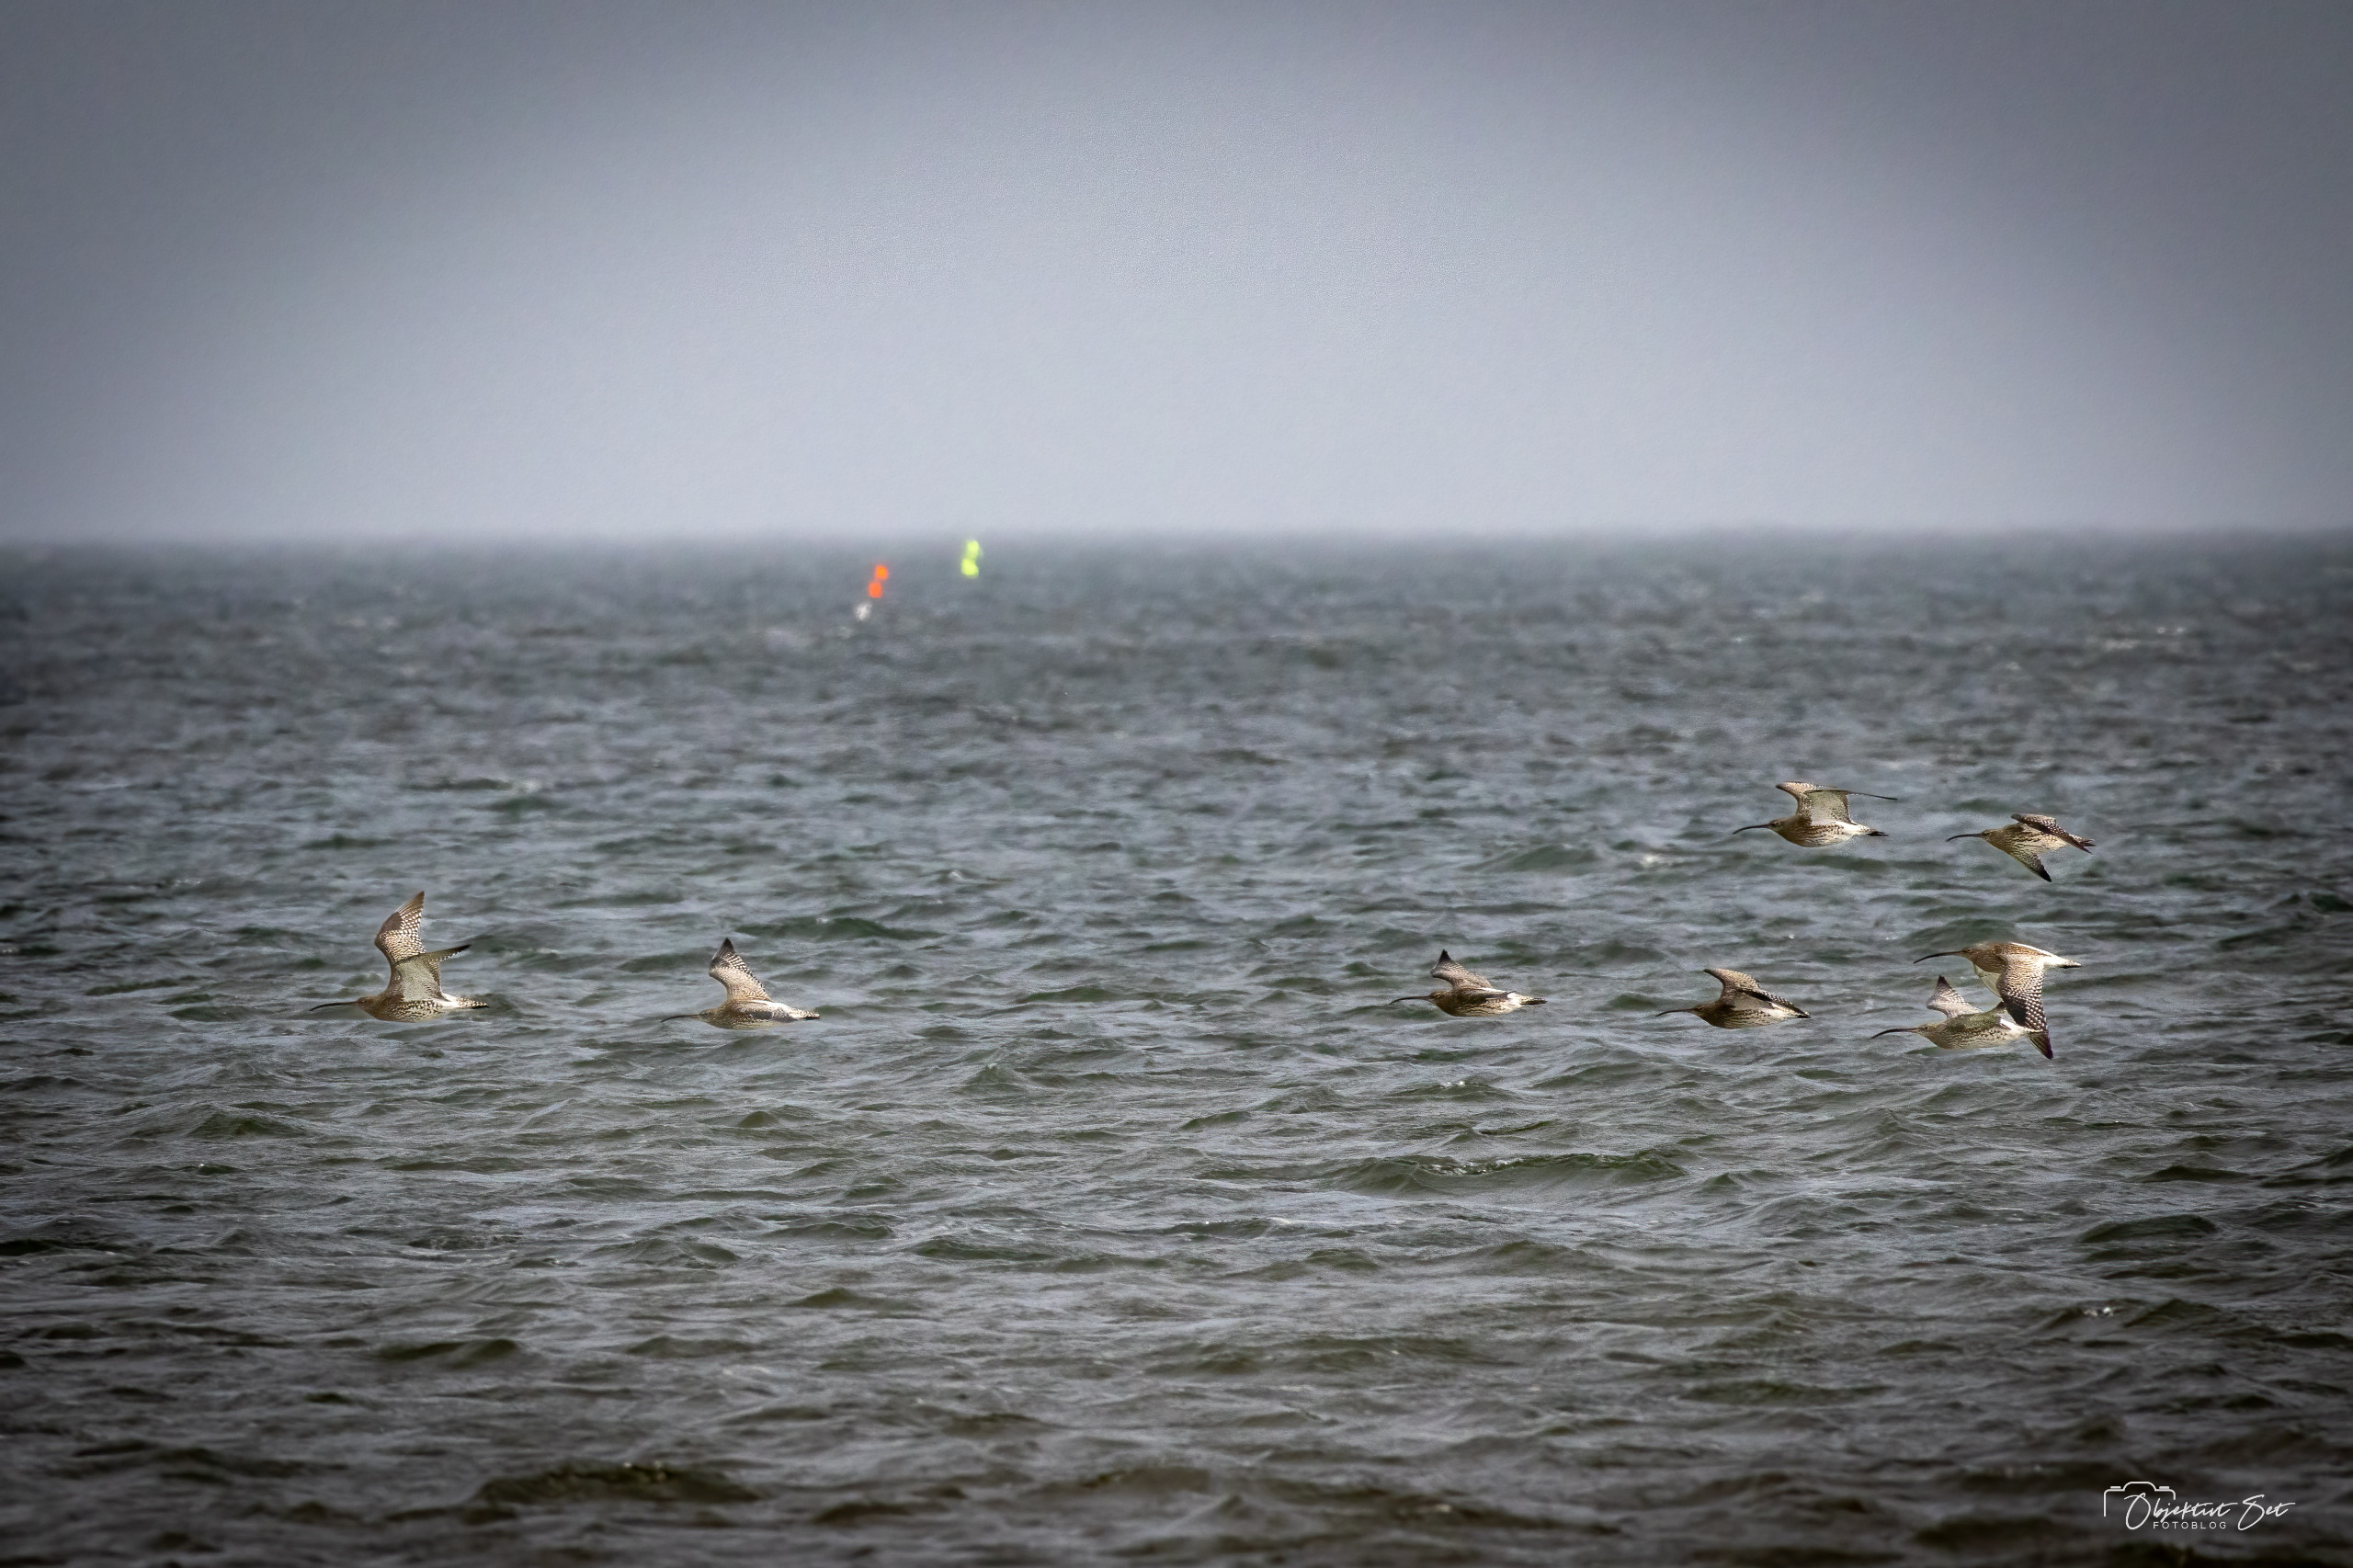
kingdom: Animalia
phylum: Chordata
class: Aves
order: Charadriiformes
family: Scolopacidae
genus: Numenius
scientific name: Numenius arquata
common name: Storspove
